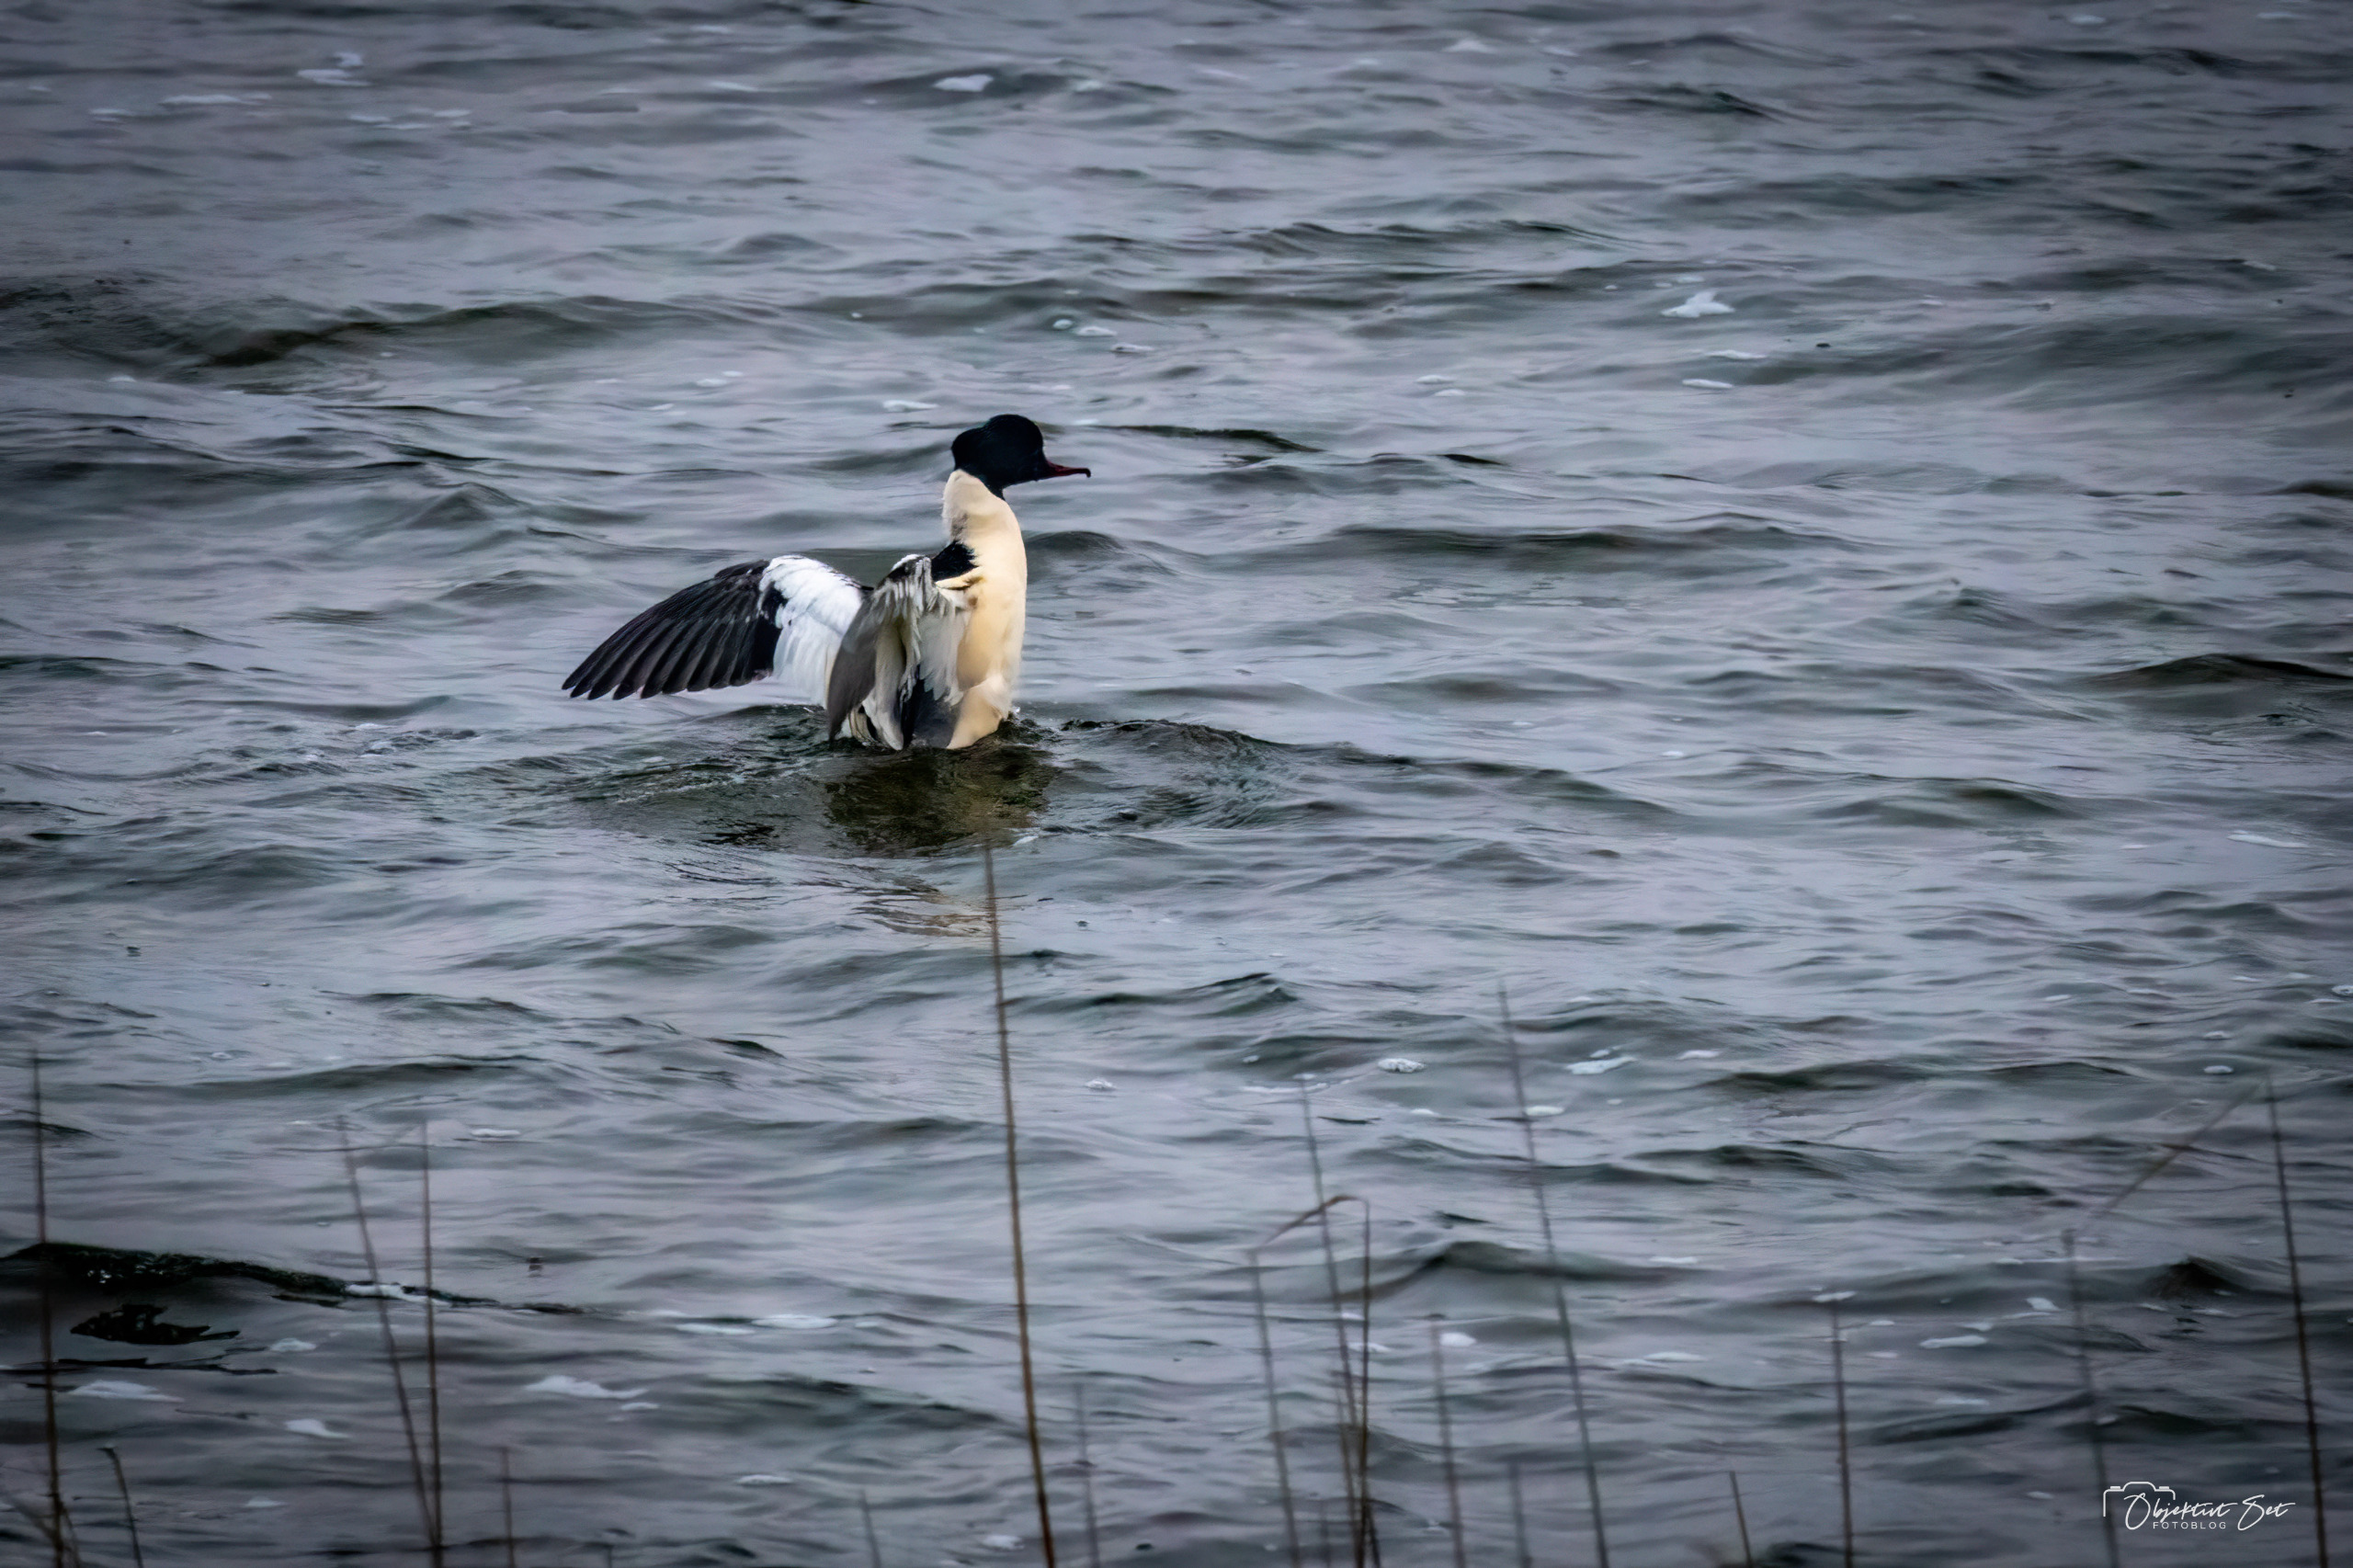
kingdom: Animalia
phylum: Chordata
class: Aves
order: Anseriformes
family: Anatidae
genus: Mergus
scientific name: Mergus merganser
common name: Stor skallesluger
